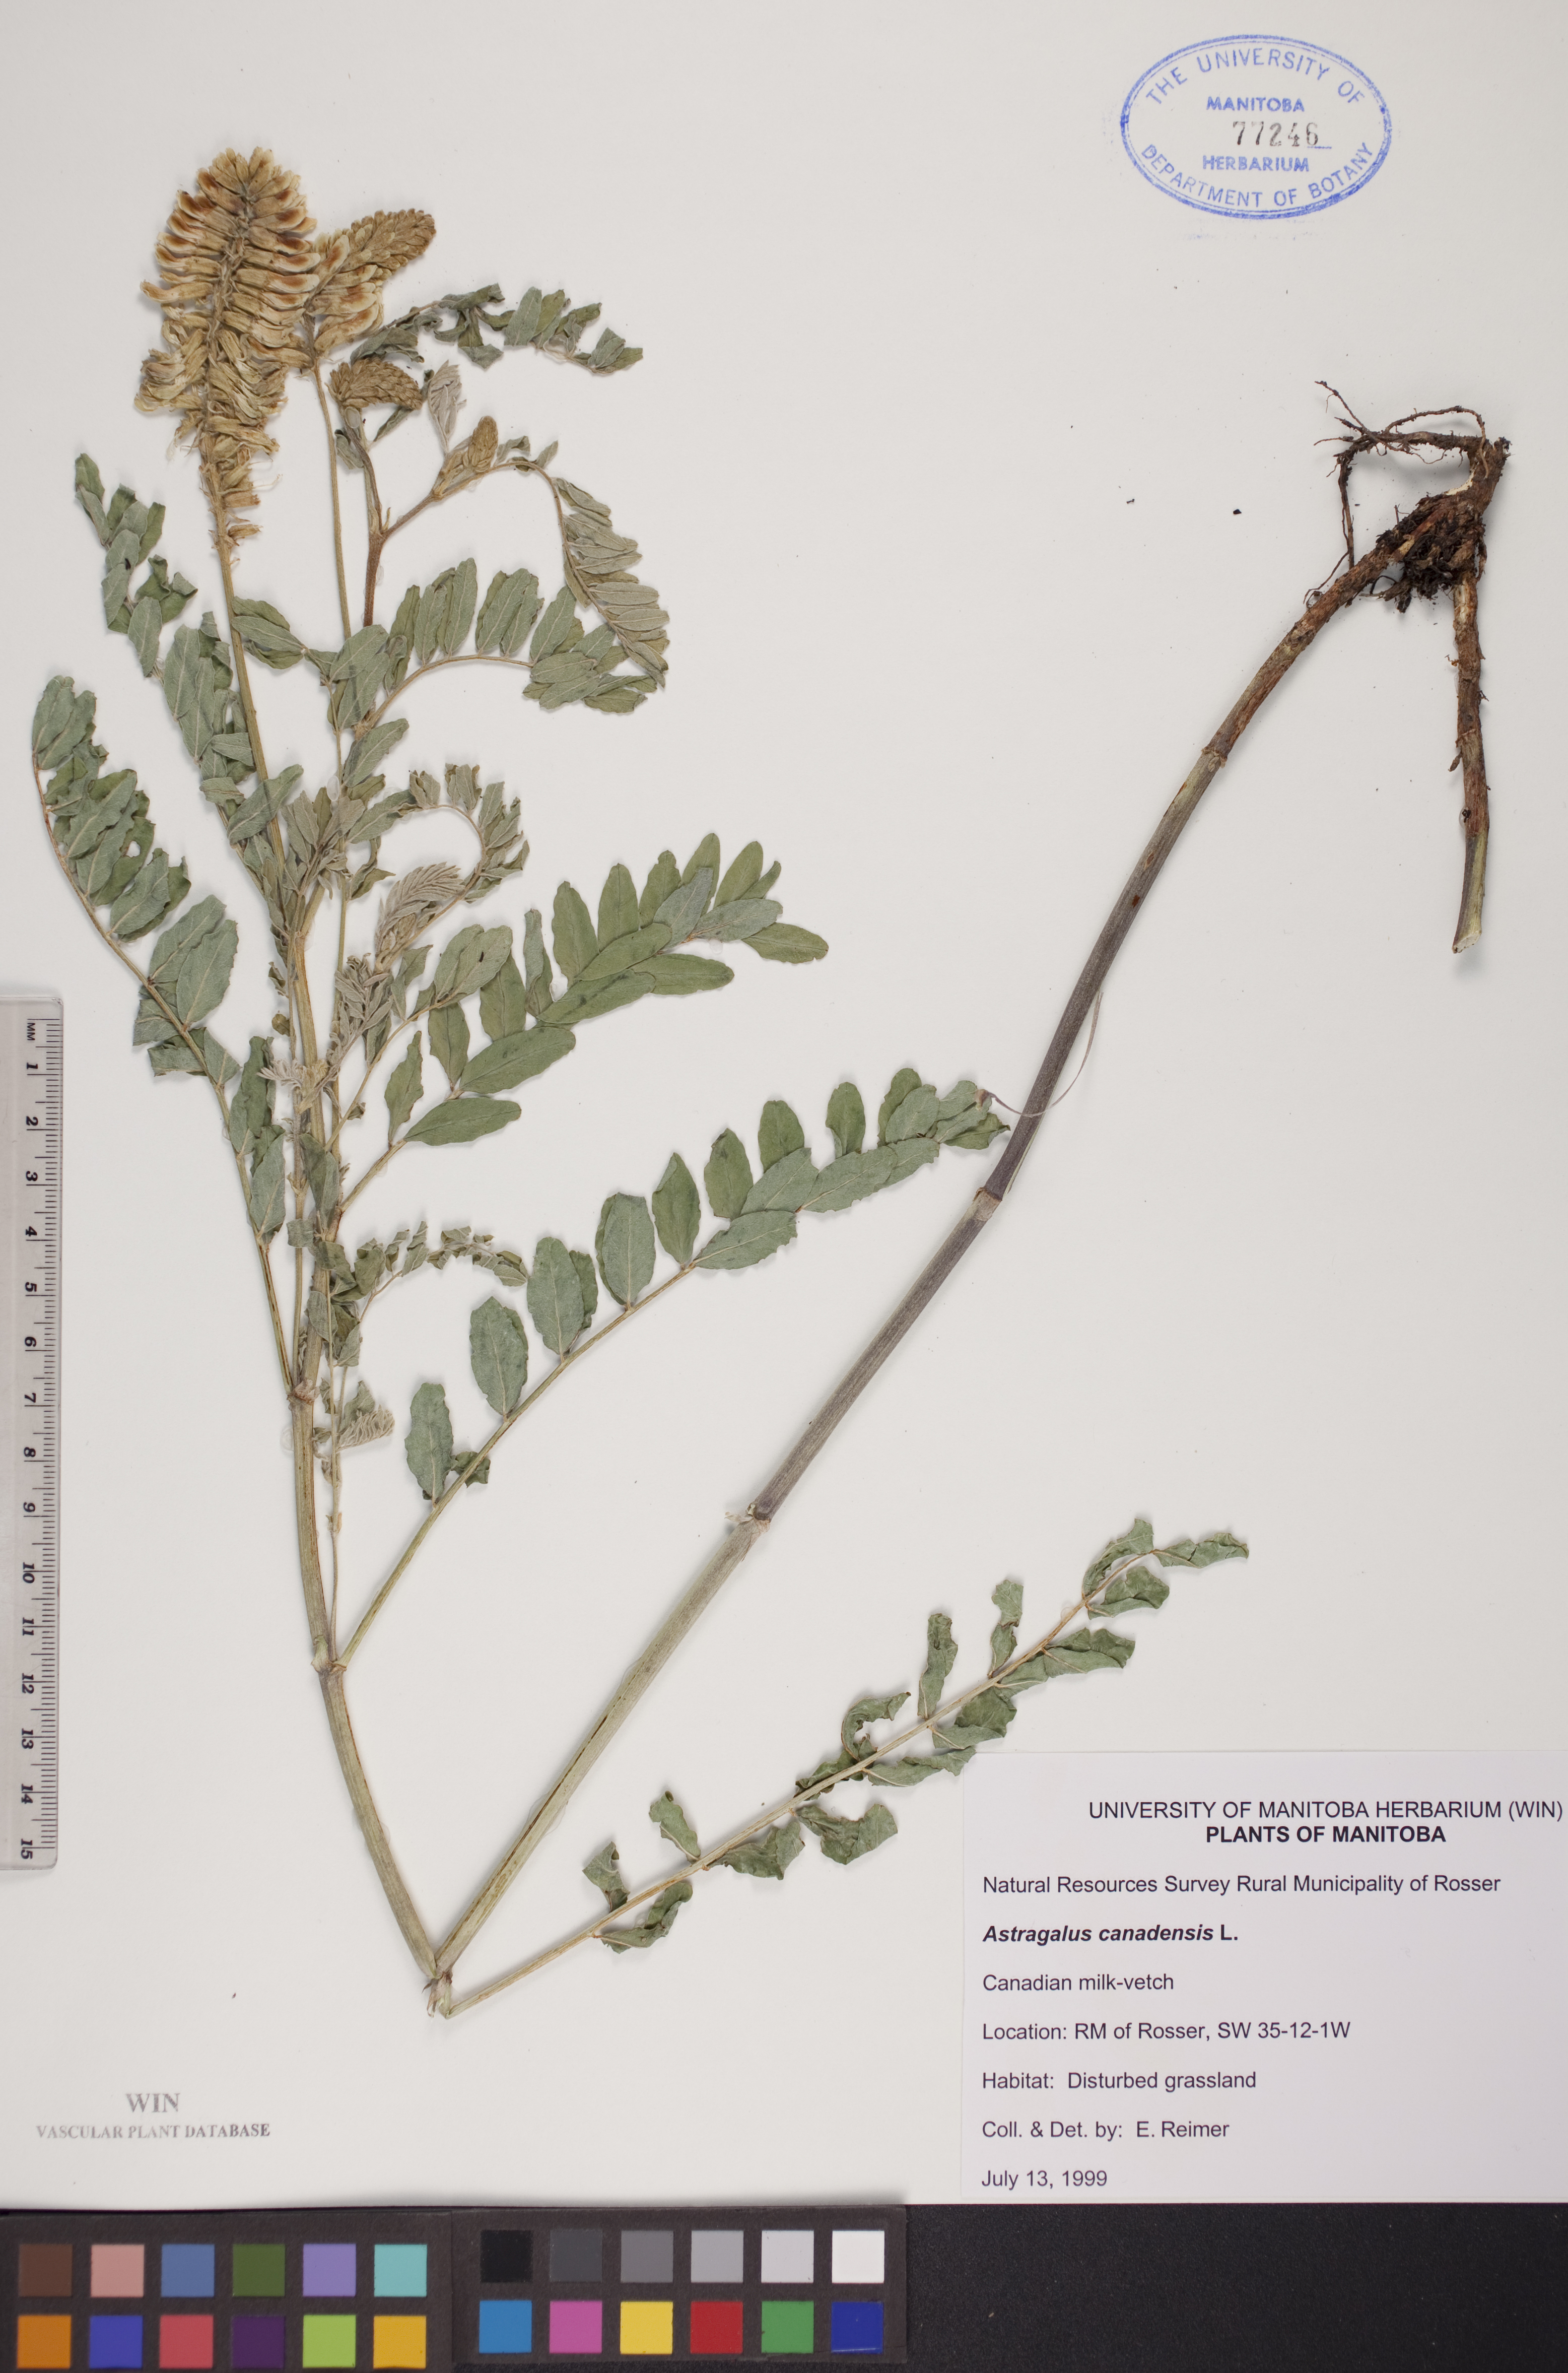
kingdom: Plantae
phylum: Tracheophyta
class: Magnoliopsida
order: Fabales
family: Fabaceae
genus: Astragalus
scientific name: Astragalus canadensis
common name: Canada milk-vetch
